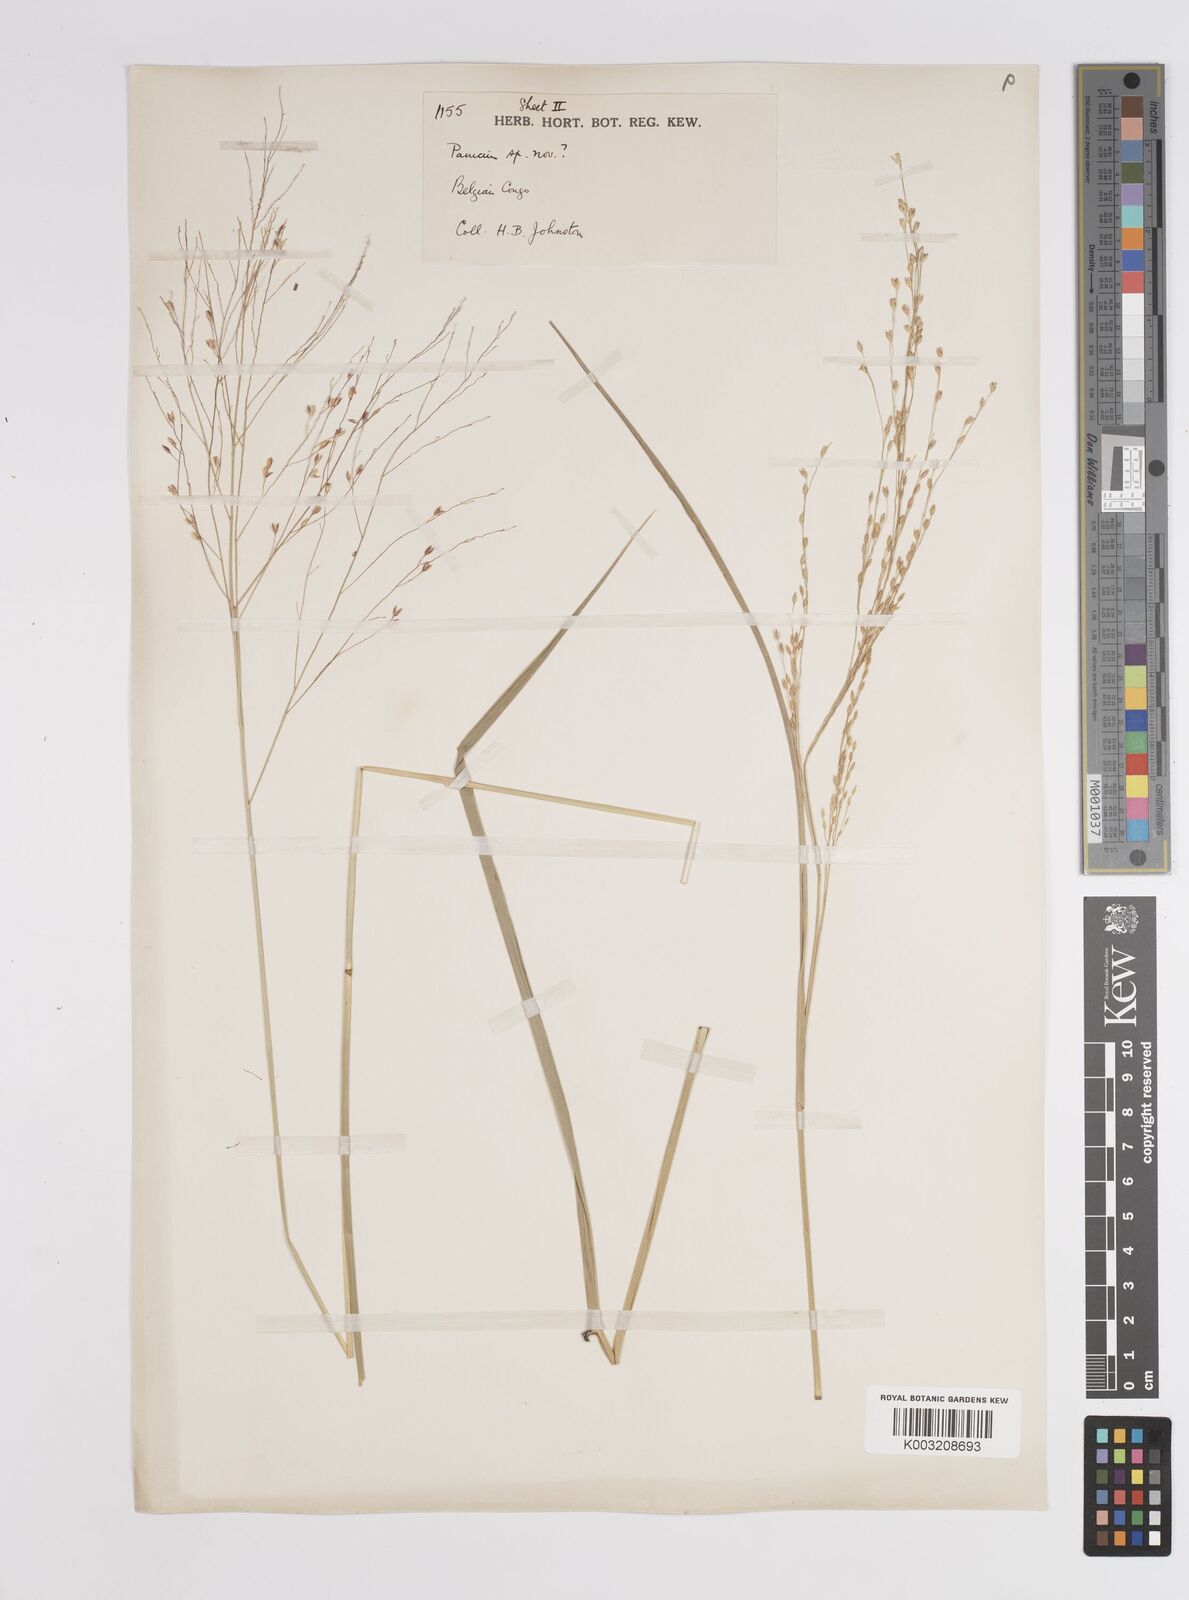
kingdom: Plantae
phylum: Tracheophyta
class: Liliopsida
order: Poales
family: Poaceae
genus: Panicum
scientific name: Panicum phragmitoides
